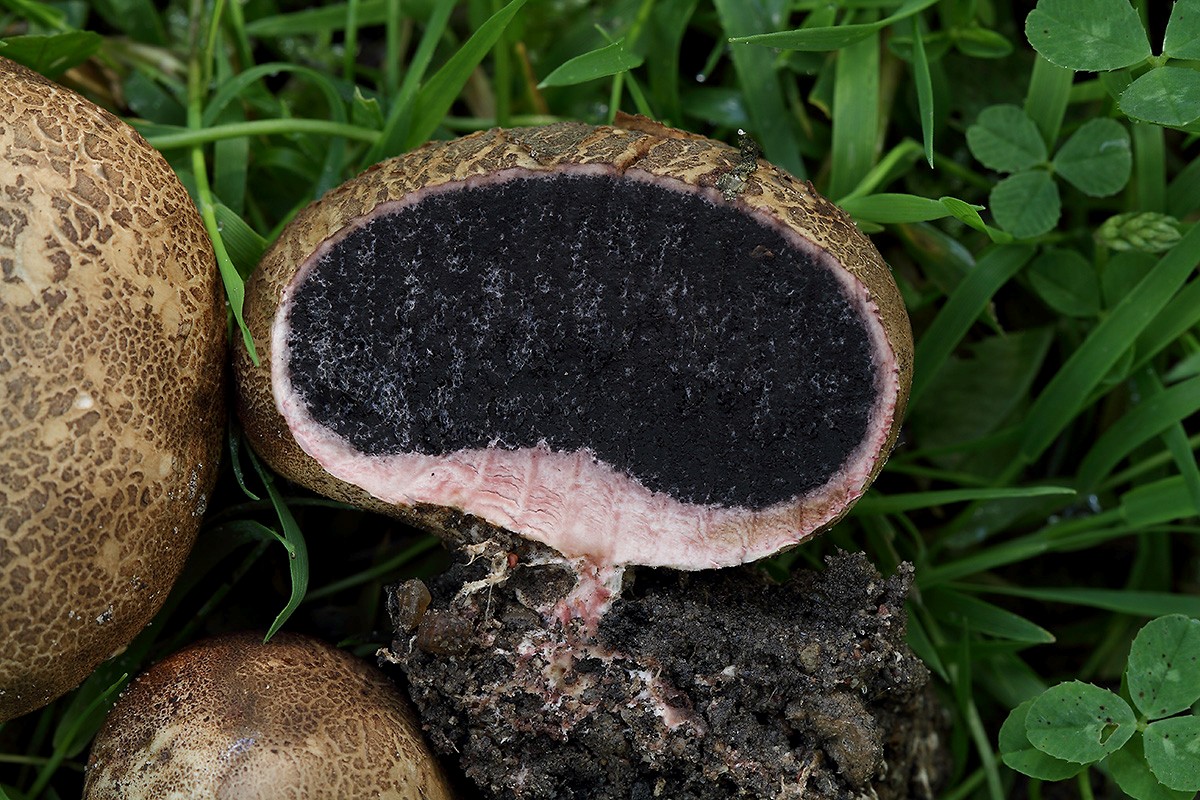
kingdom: Fungi
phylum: Basidiomycota
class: Agaricomycetes
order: Boletales
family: Sclerodermataceae
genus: Scleroderma
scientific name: Scleroderma verrucosum
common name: stilket bruskbold
